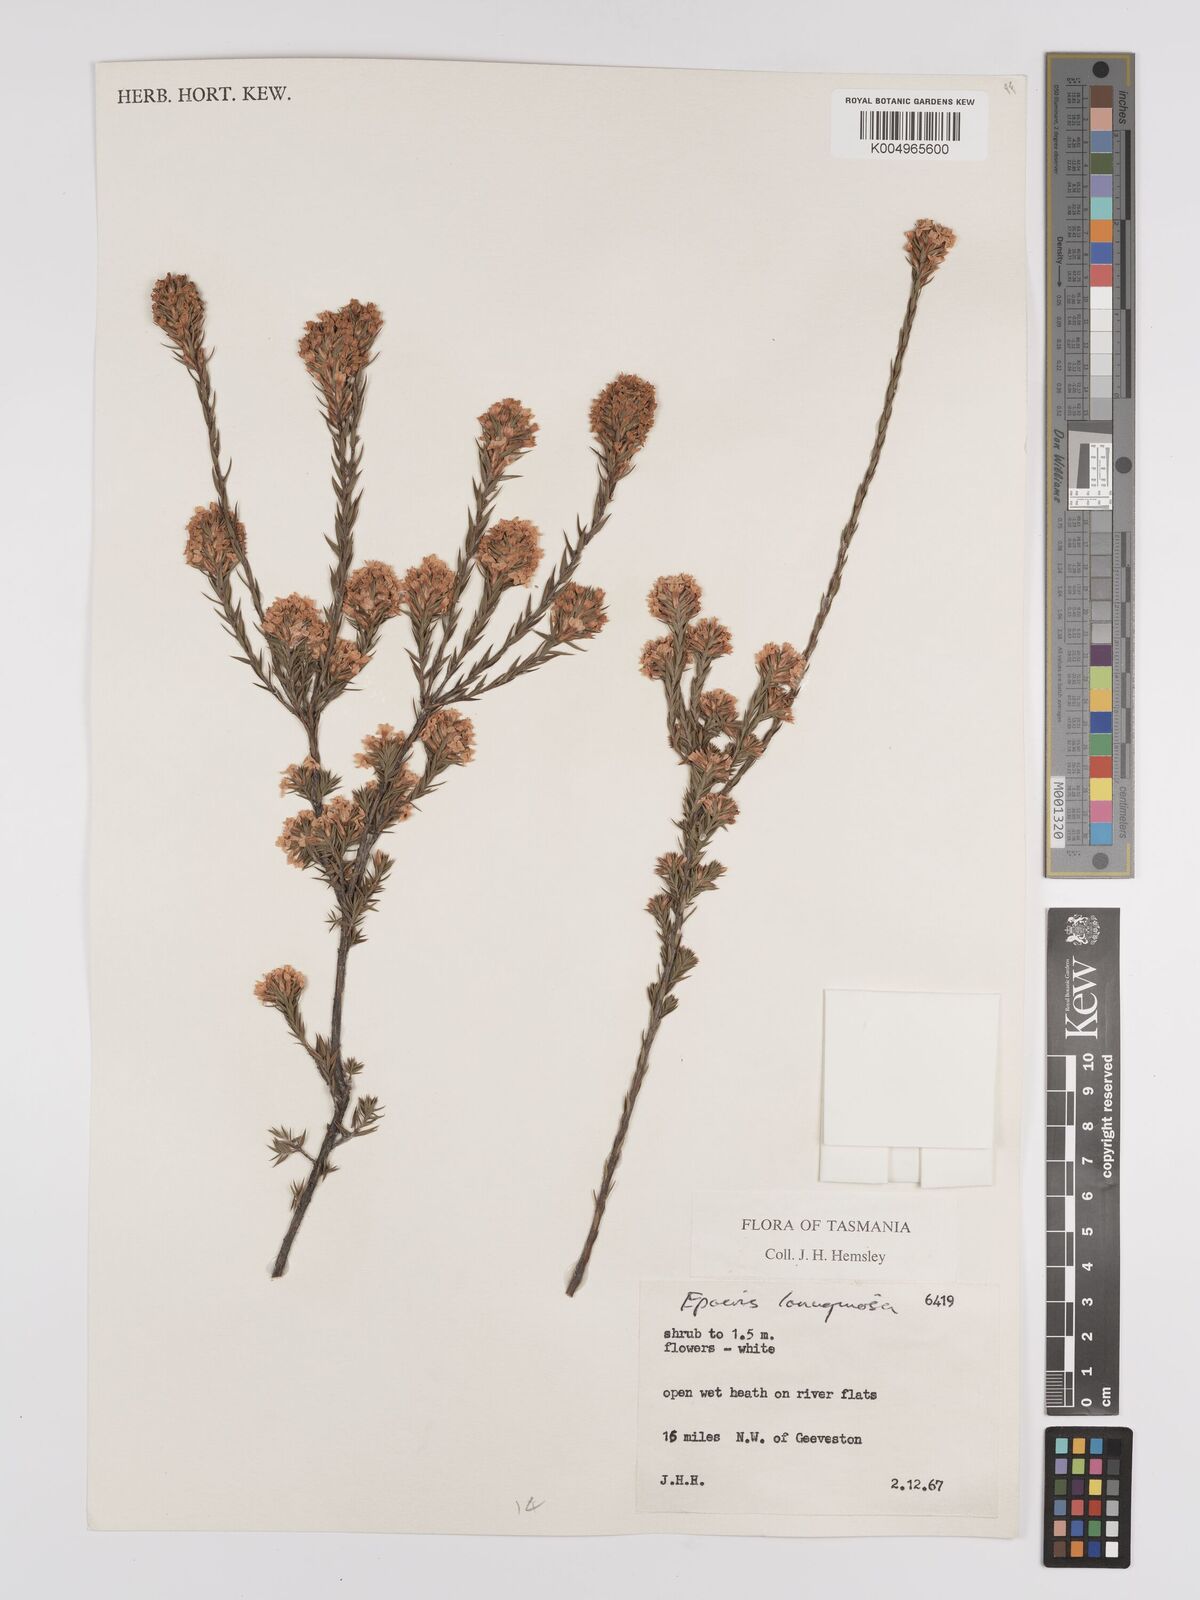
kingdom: Plantae
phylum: Tracheophyta
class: Magnoliopsida
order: Ericales
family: Ericaceae
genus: Epacris
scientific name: Epacris lanuginosa
